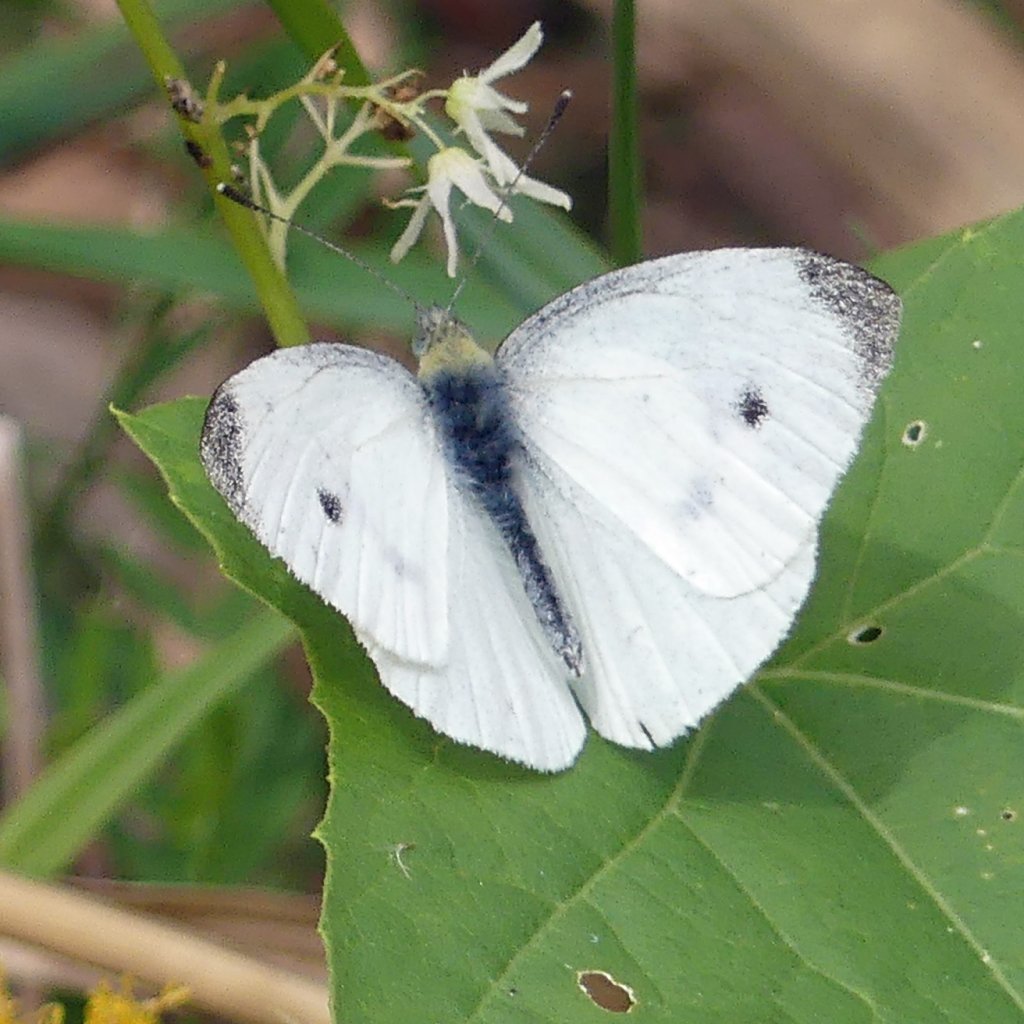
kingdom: Animalia
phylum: Arthropoda
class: Insecta
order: Lepidoptera
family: Pieridae
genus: Pieris
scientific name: Pieris rapae
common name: Cabbage White
